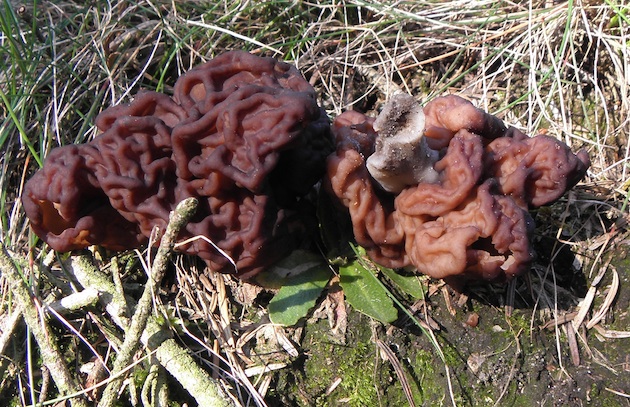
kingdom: Fungi
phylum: Ascomycota
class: Pezizomycetes
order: Pezizales
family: Discinaceae
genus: Gyromitra
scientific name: Gyromitra esculenta
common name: ægte stenmorkel
